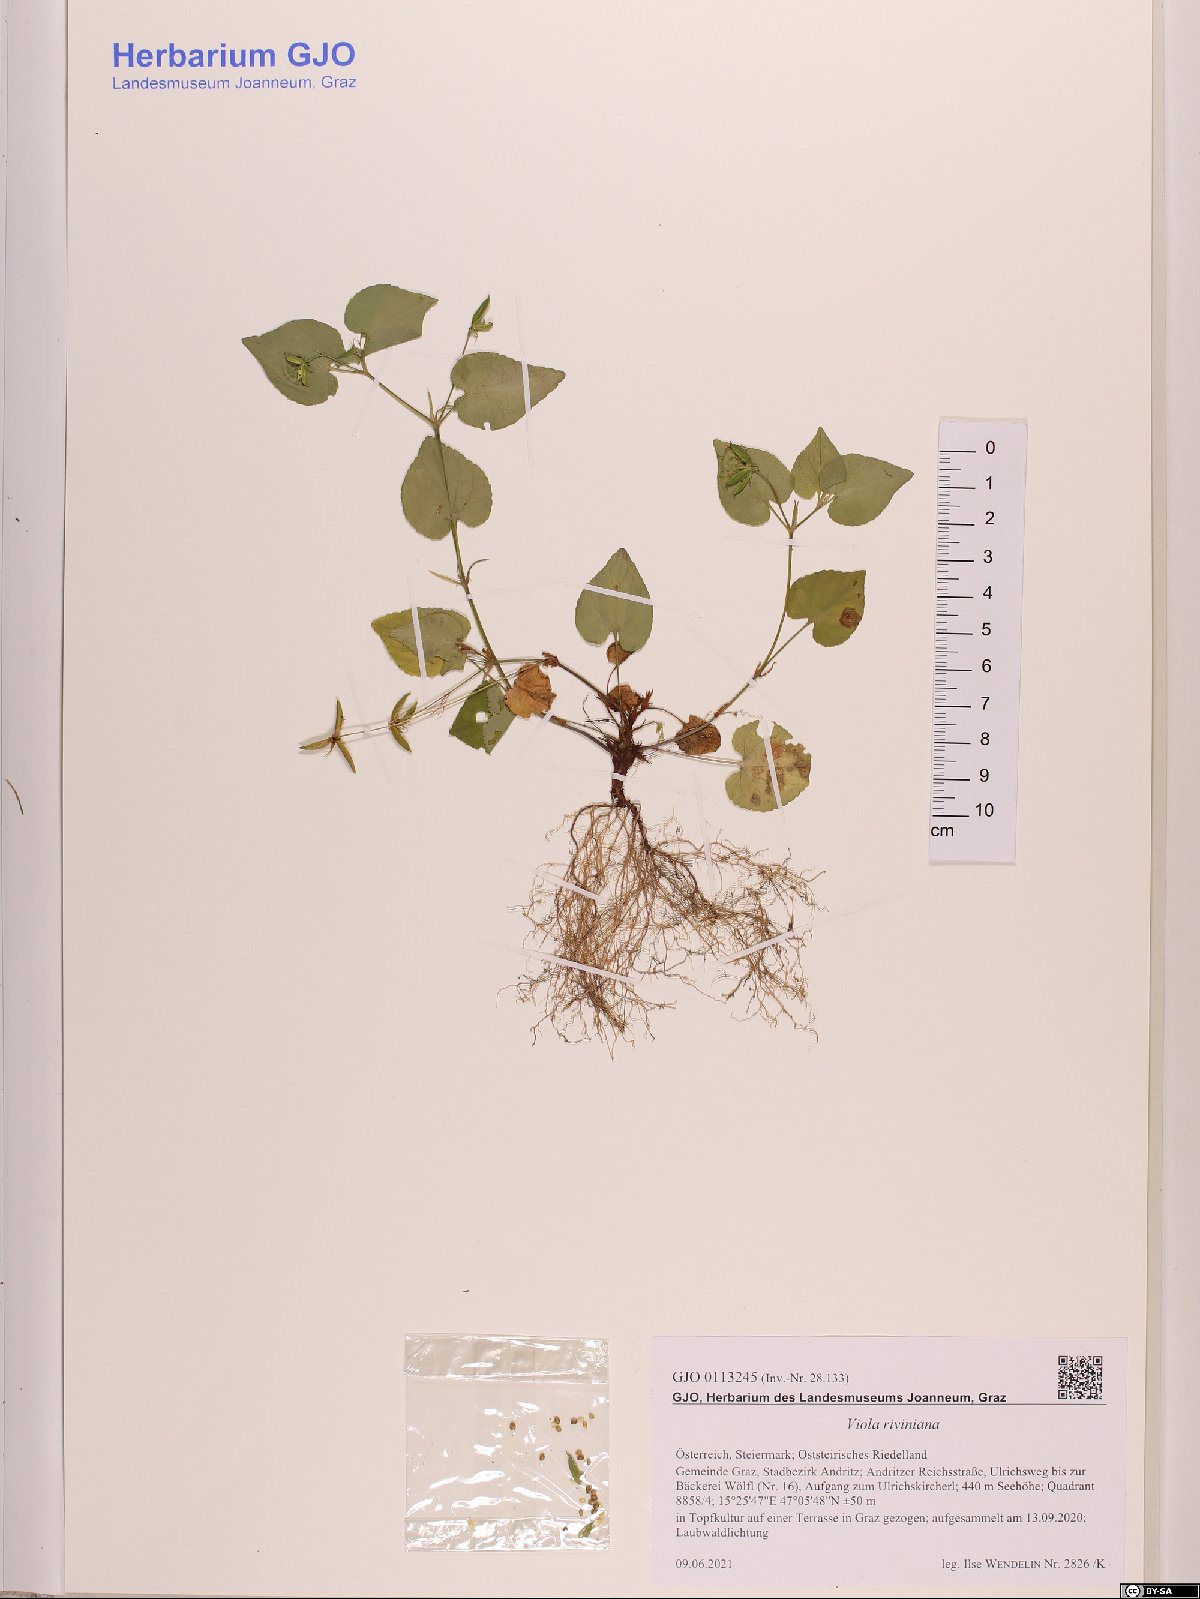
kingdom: Plantae
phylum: Tracheophyta
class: Magnoliopsida
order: Malpighiales
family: Violaceae
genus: Viola
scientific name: Viola riviniana
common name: Common dog-violet
